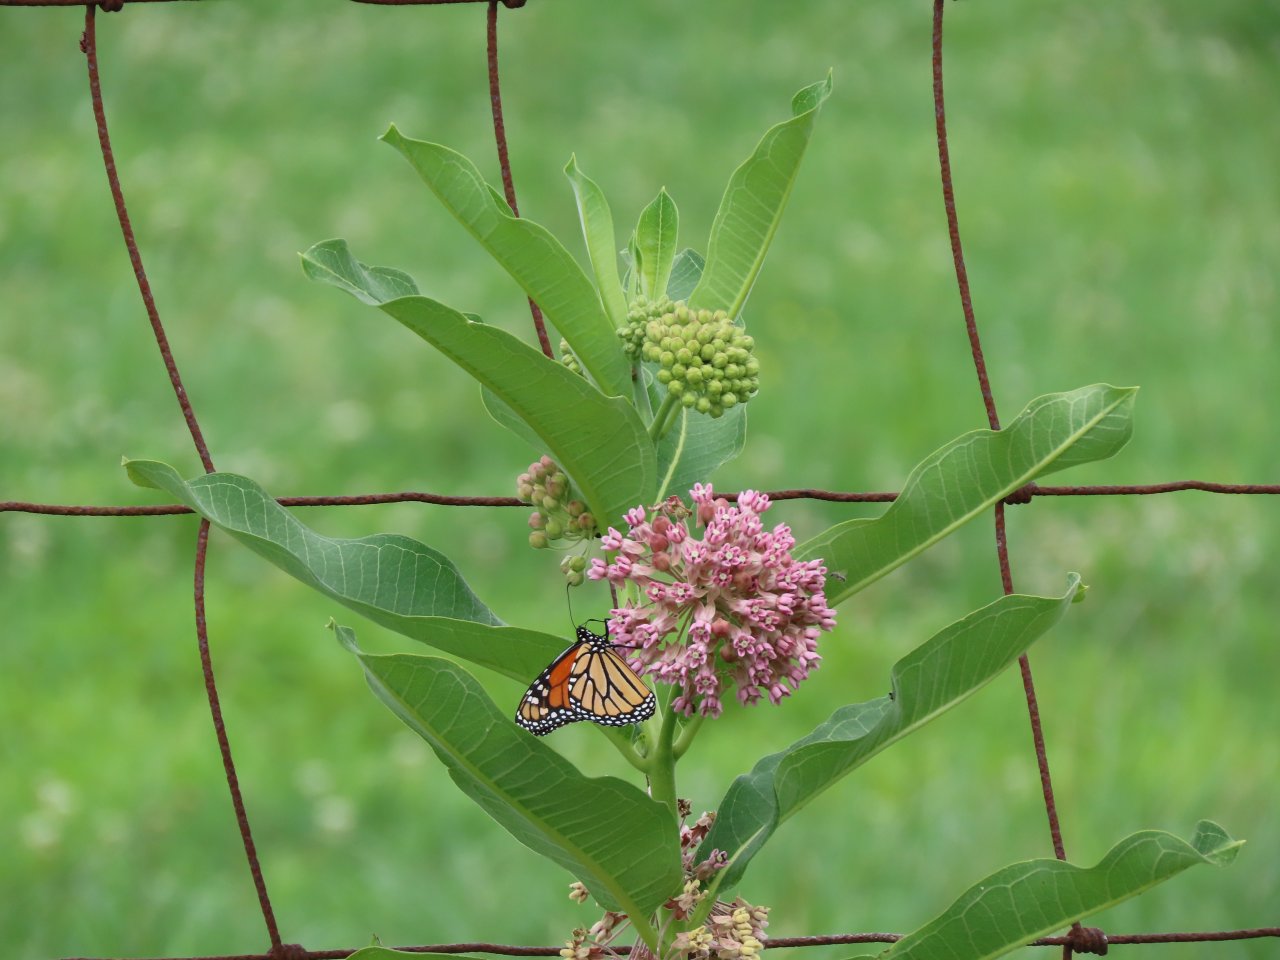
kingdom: Animalia
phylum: Arthropoda
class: Insecta
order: Lepidoptera
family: Nymphalidae
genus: Danaus
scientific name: Danaus plexippus
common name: Monarch
